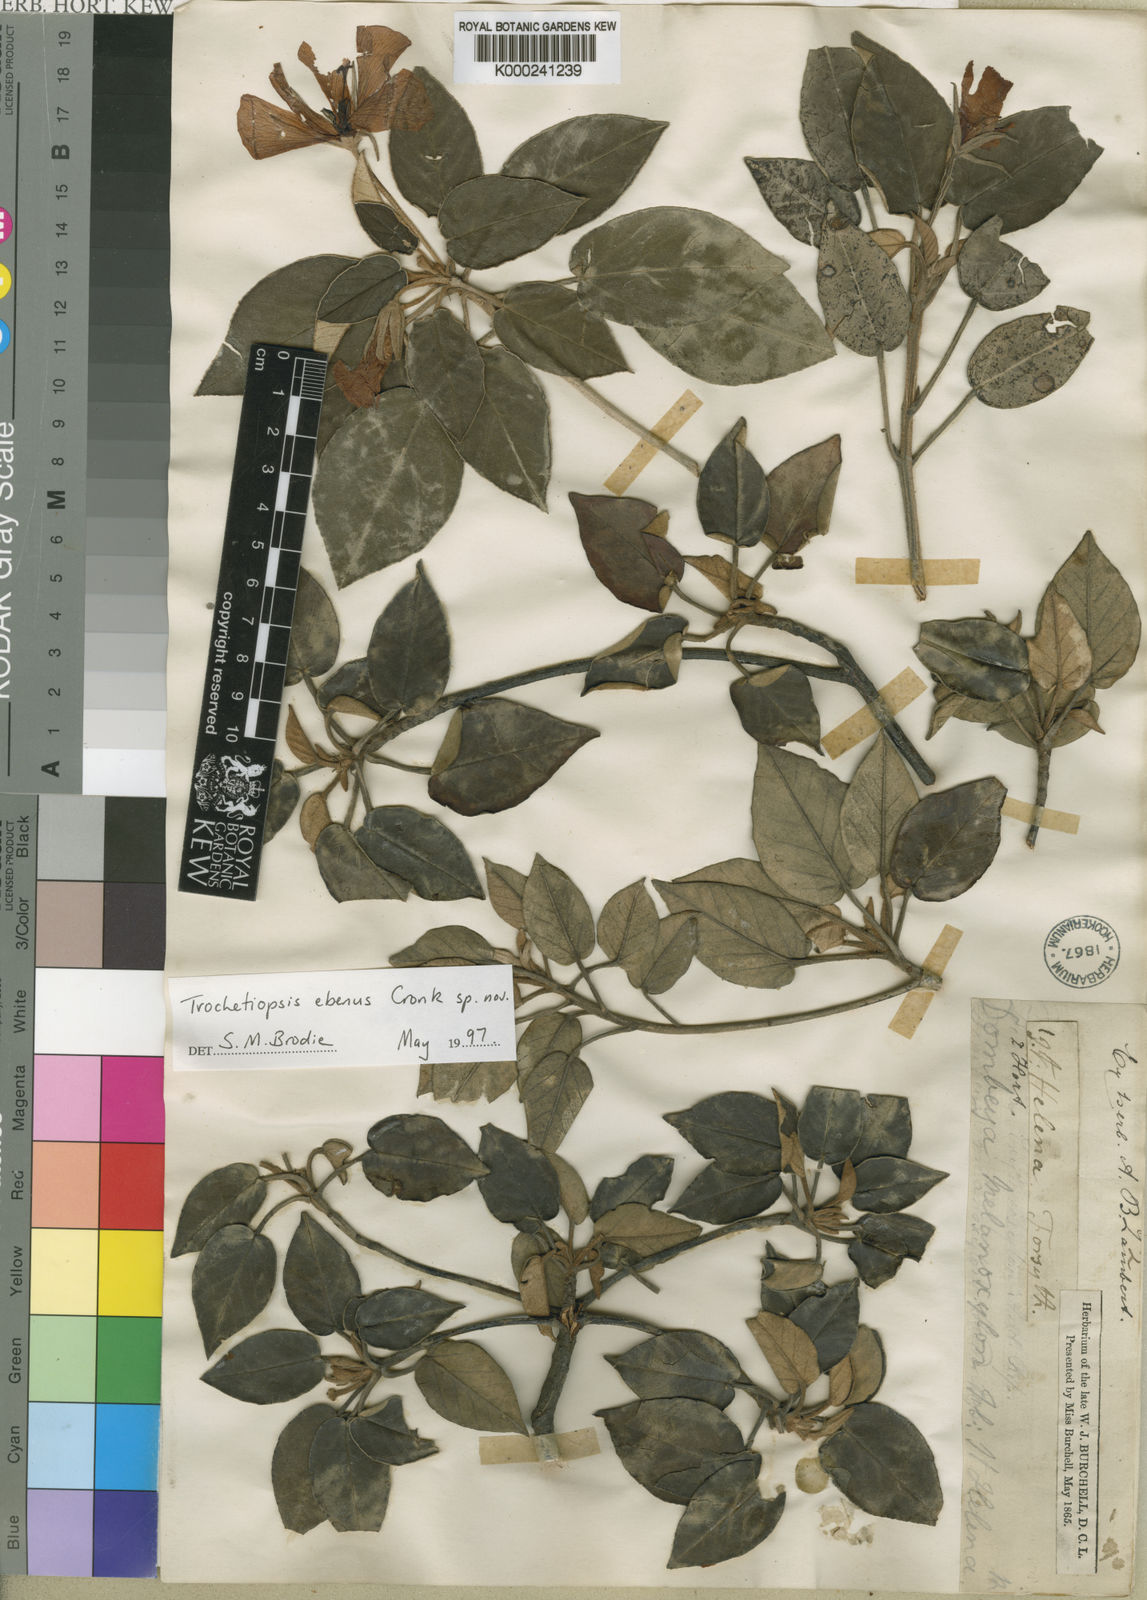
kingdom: Plantae
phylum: Tracheophyta
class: Magnoliopsida
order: Malvales
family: Malvaceae
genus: Melhania
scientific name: Melhania ebena
